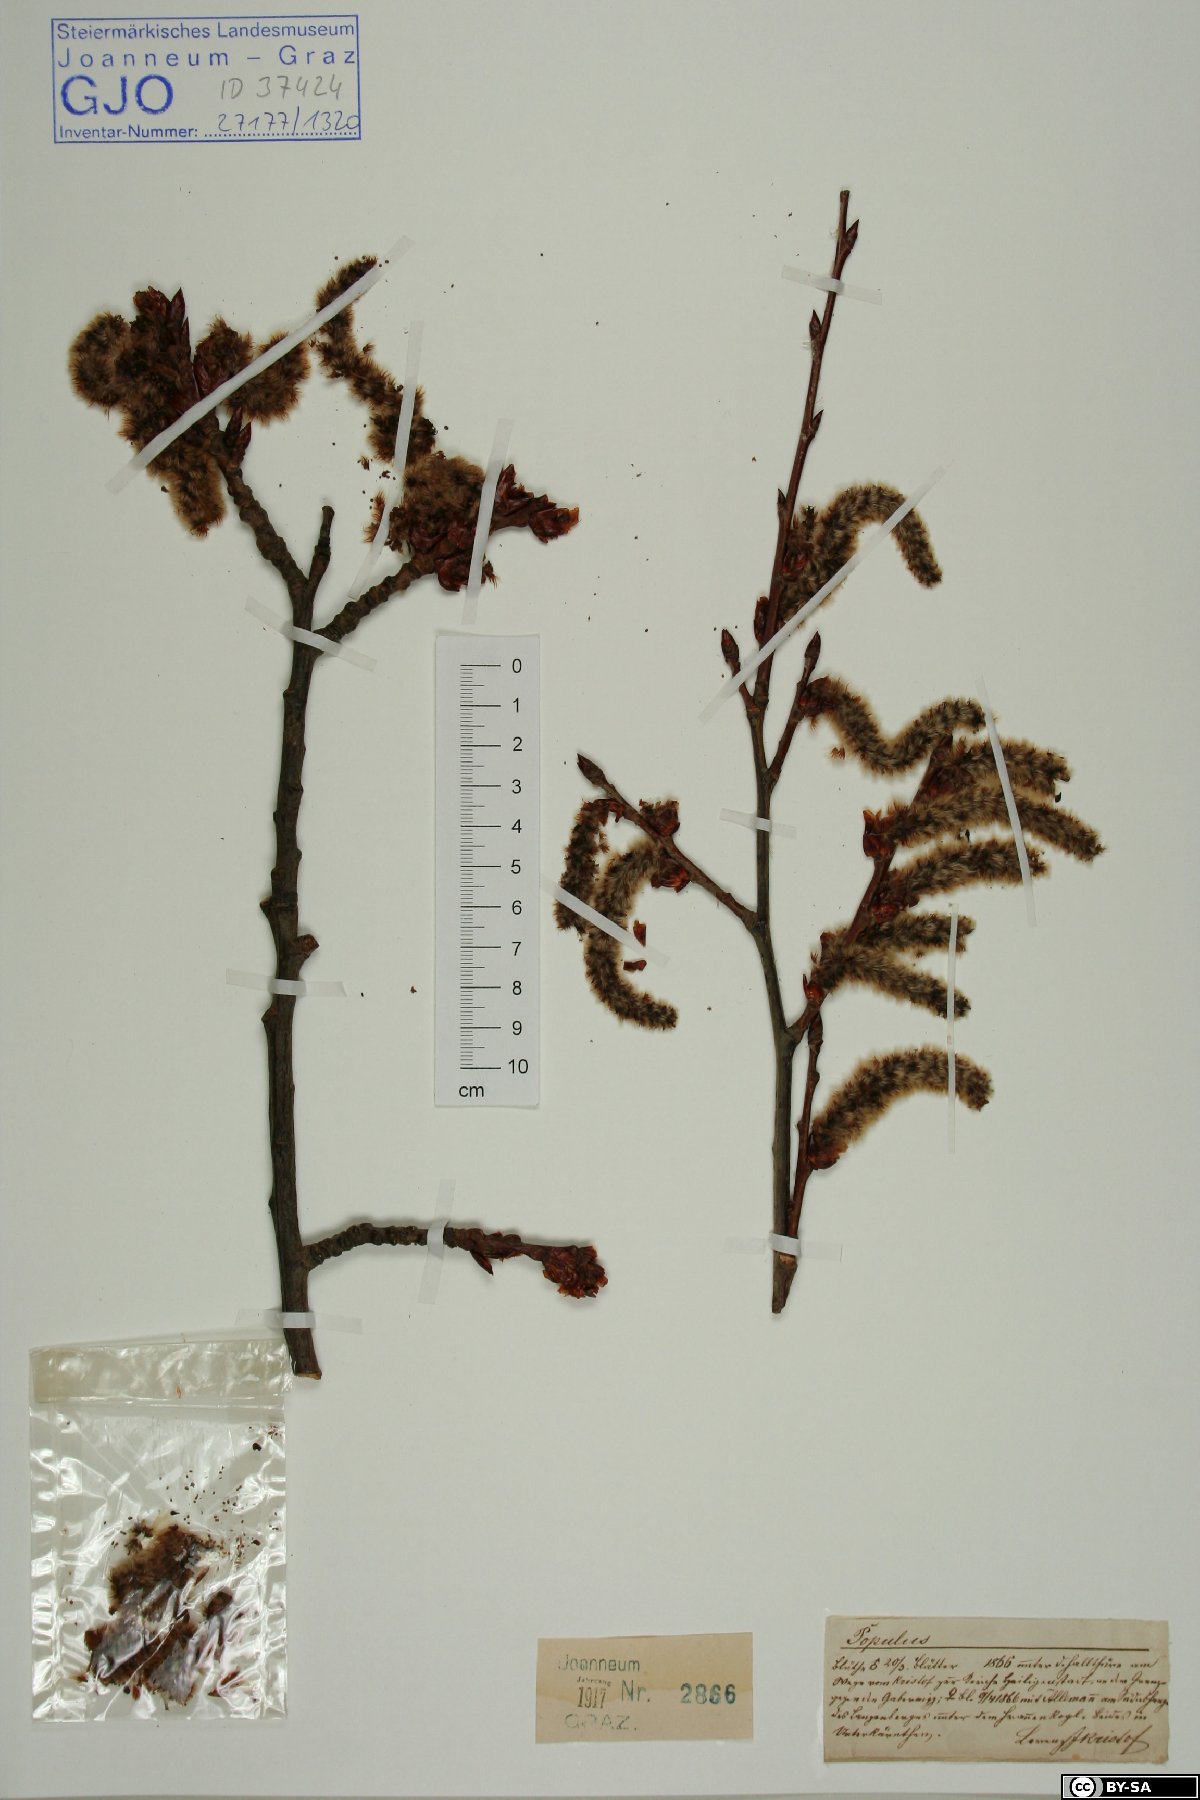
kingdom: Plantae
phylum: Tracheophyta
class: Magnoliopsida
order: Malpighiales
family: Salicaceae
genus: Populus
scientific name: Populus
